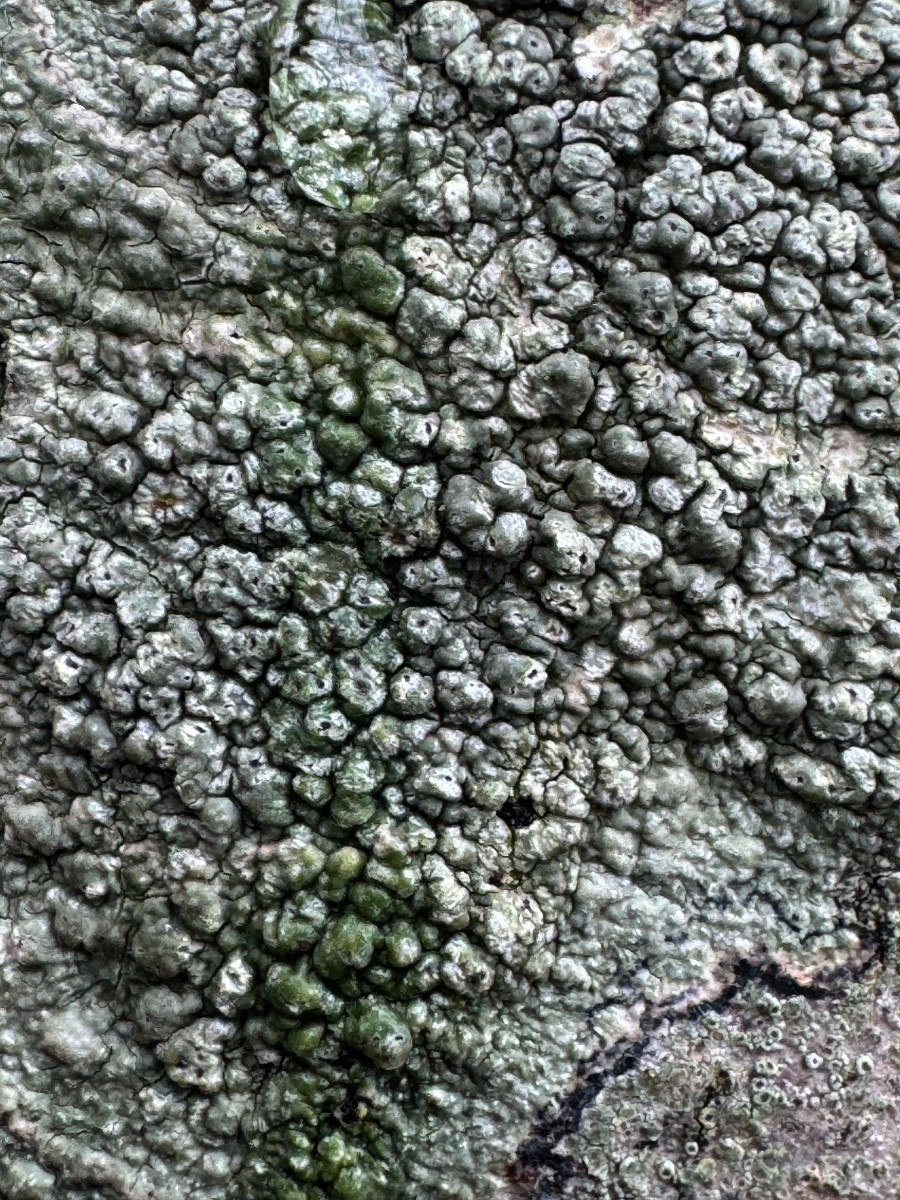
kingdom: Fungi
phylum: Ascomycota
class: Lecanoromycetes
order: Pertusariales
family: Pertusariaceae
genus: Pertusaria
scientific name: Pertusaria pertusa
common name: almindelig prikvortelav
